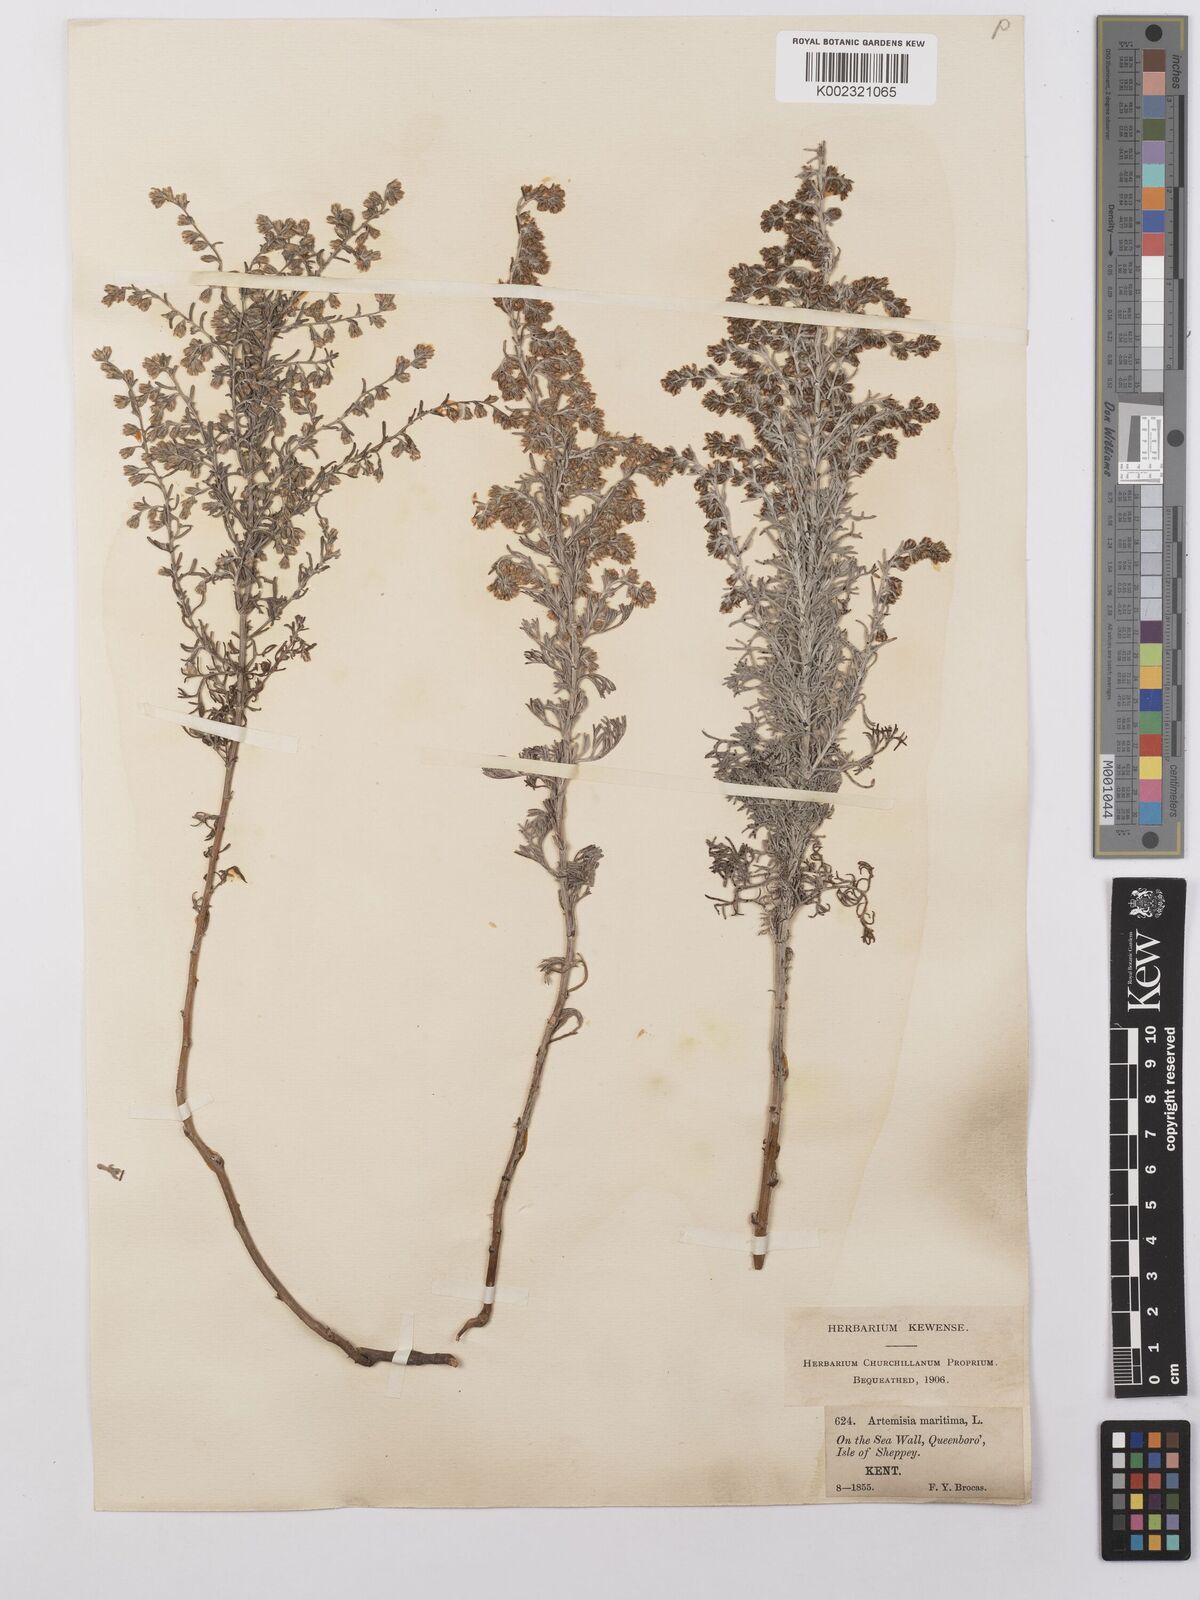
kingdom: Plantae
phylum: Tracheophyta
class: Magnoliopsida
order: Asterales
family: Asteraceae
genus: Artemisia
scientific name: Artemisia maritima
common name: Wormseed
